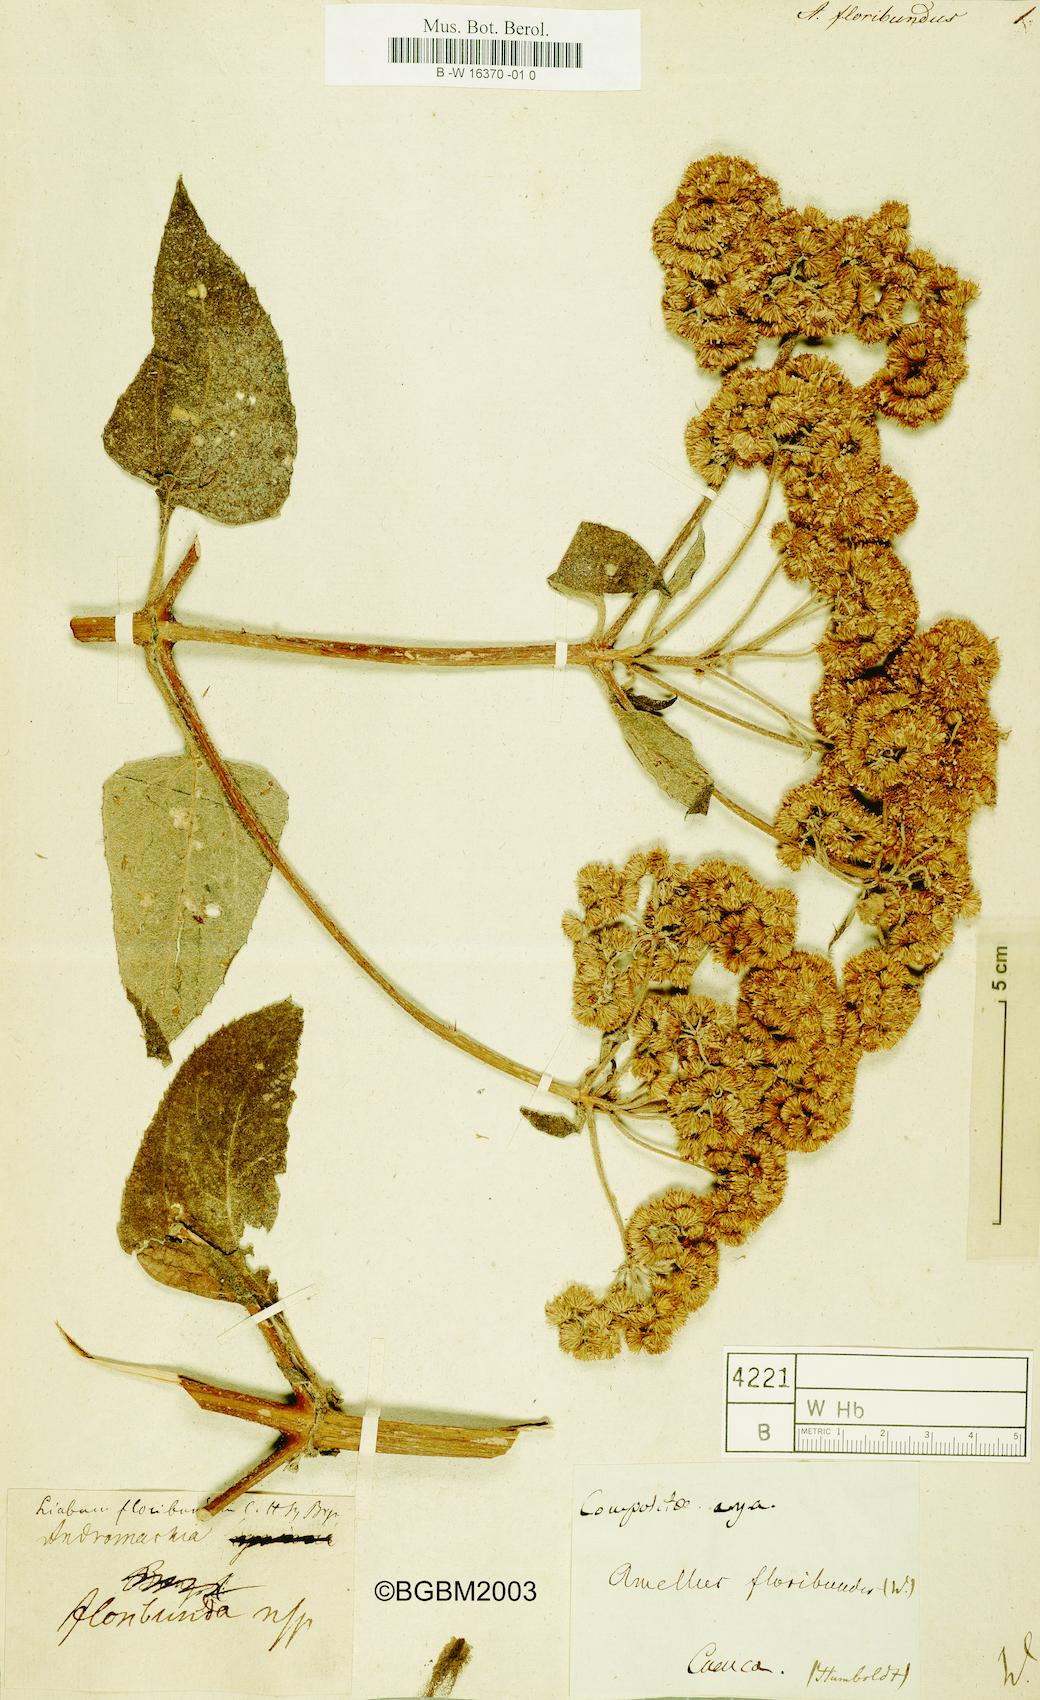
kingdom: Plantae
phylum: Tracheophyta
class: Magnoliopsida
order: Asterales
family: Asteraceae
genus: Liabum
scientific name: Liabum igniarium
